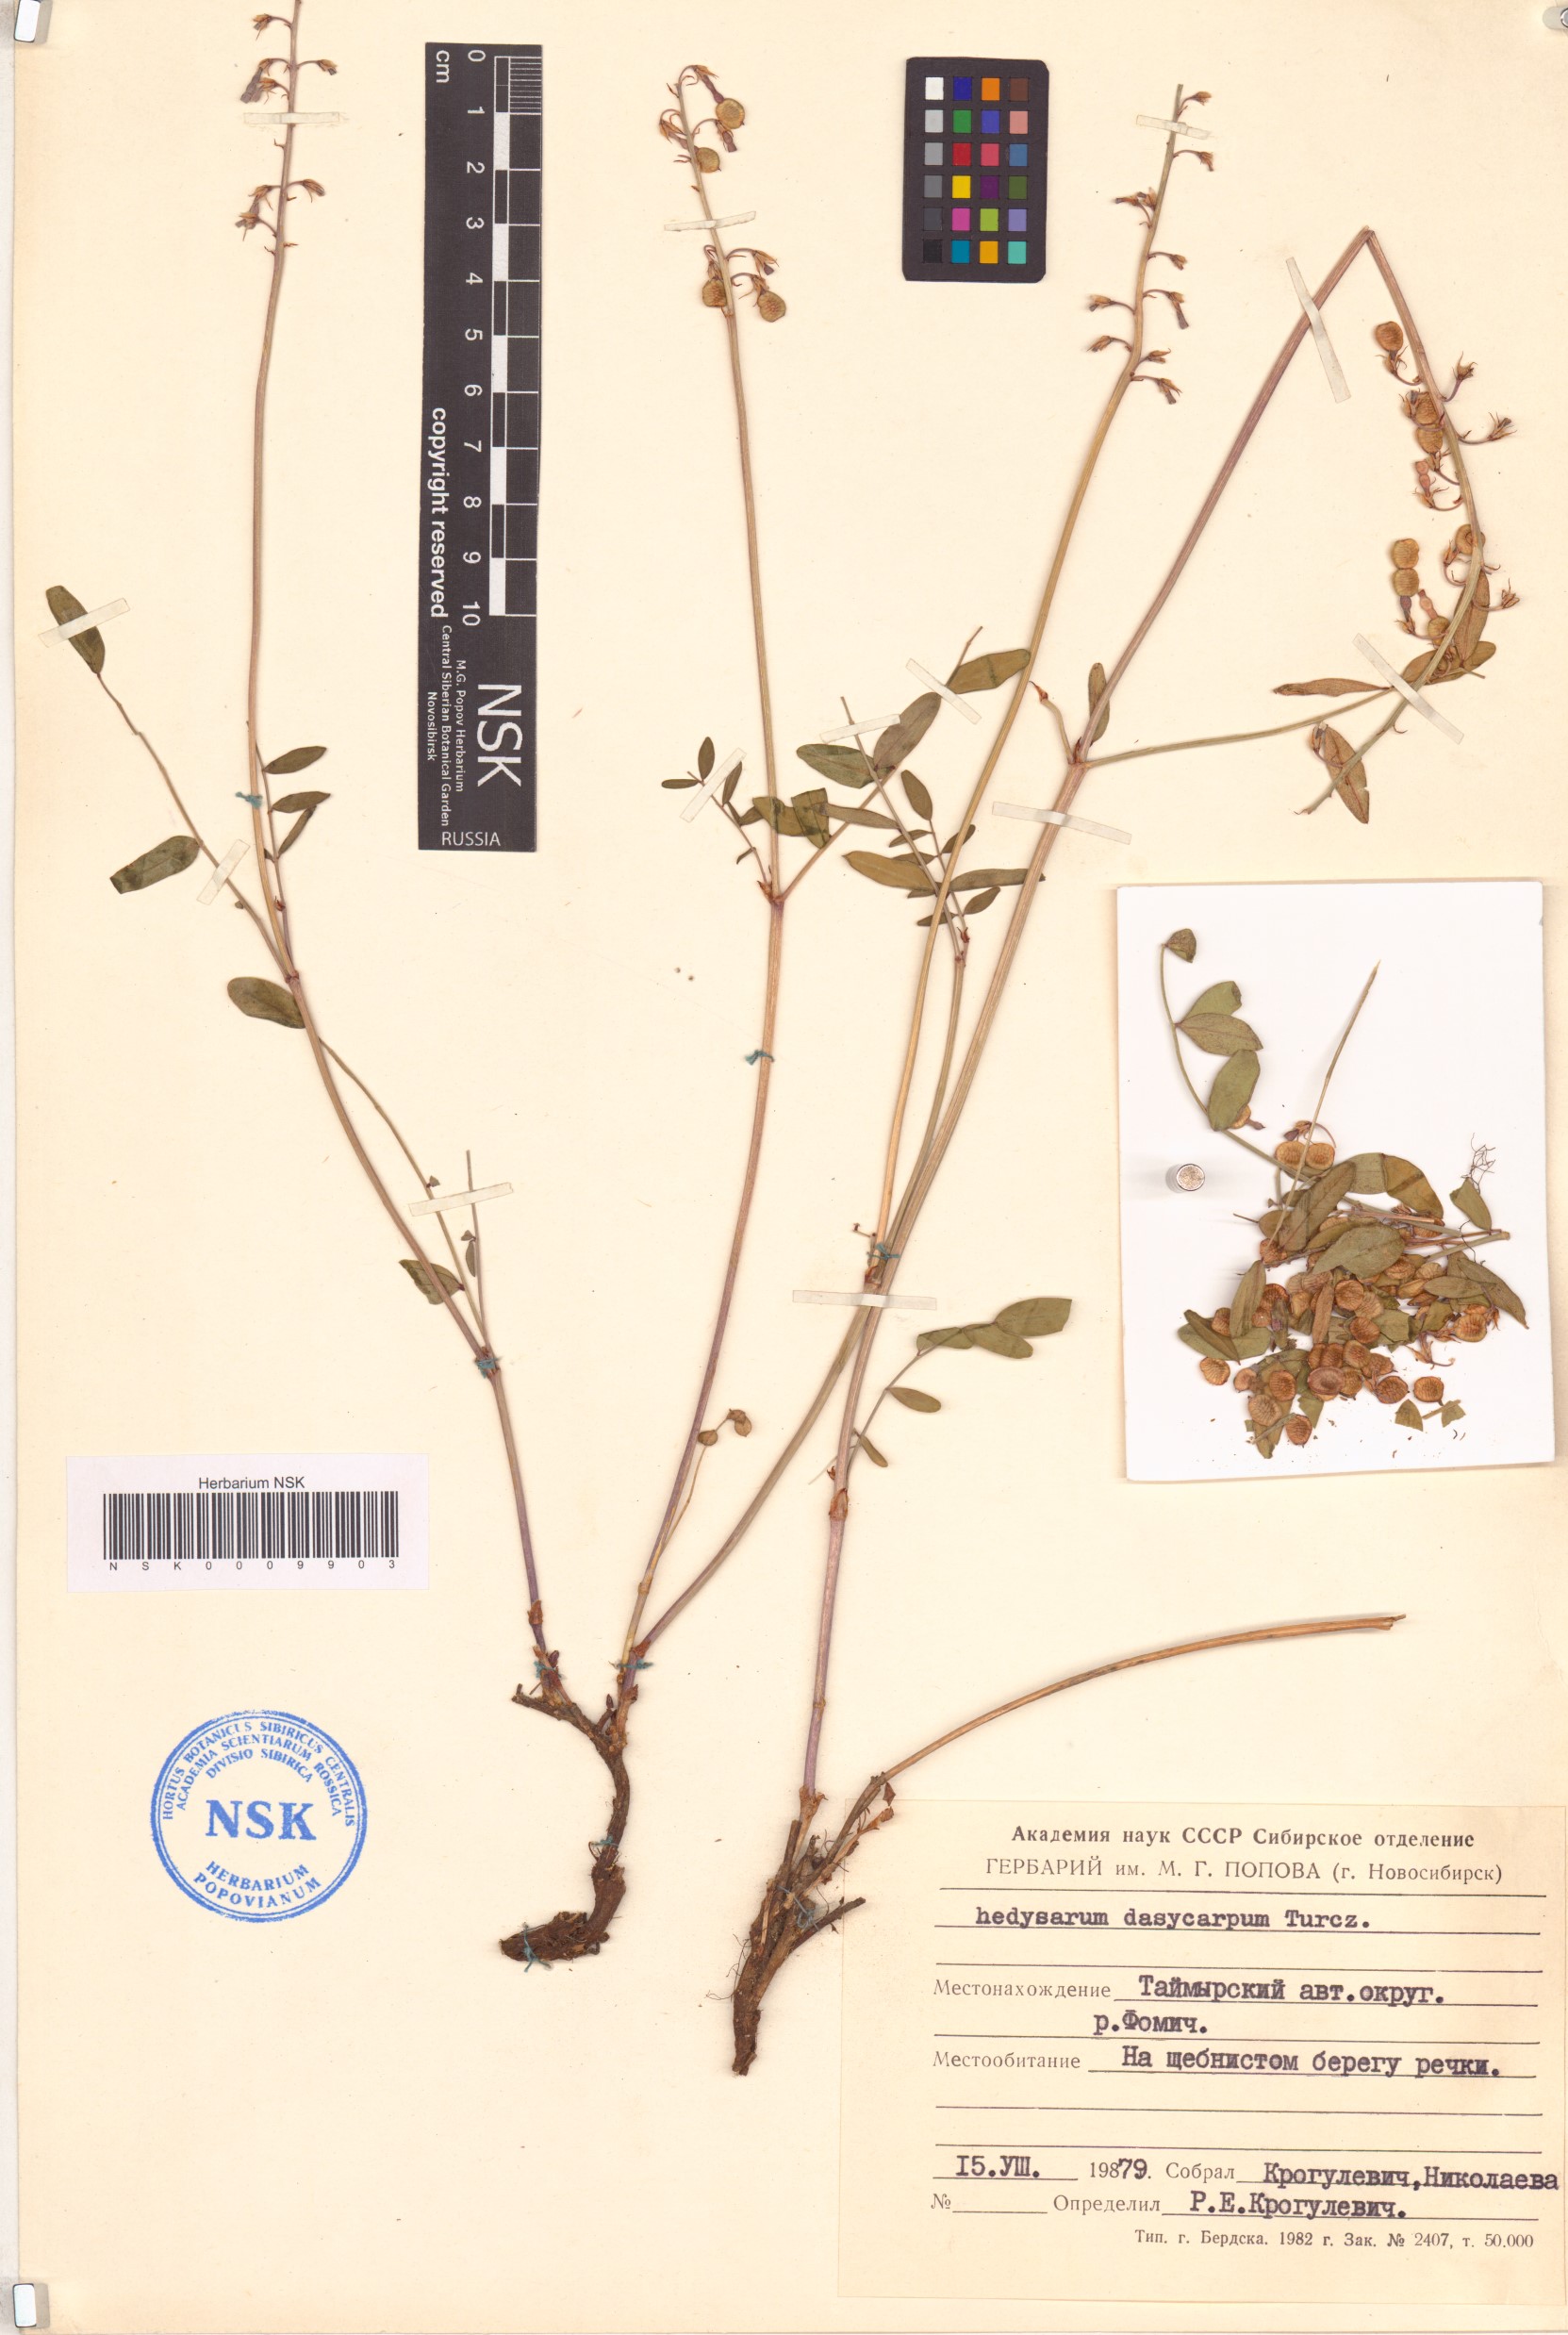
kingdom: Plantae
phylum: Tracheophyta
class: Magnoliopsida
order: Fabales
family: Fabaceae
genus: Hedysarum
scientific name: Hedysarum dasycarpum
